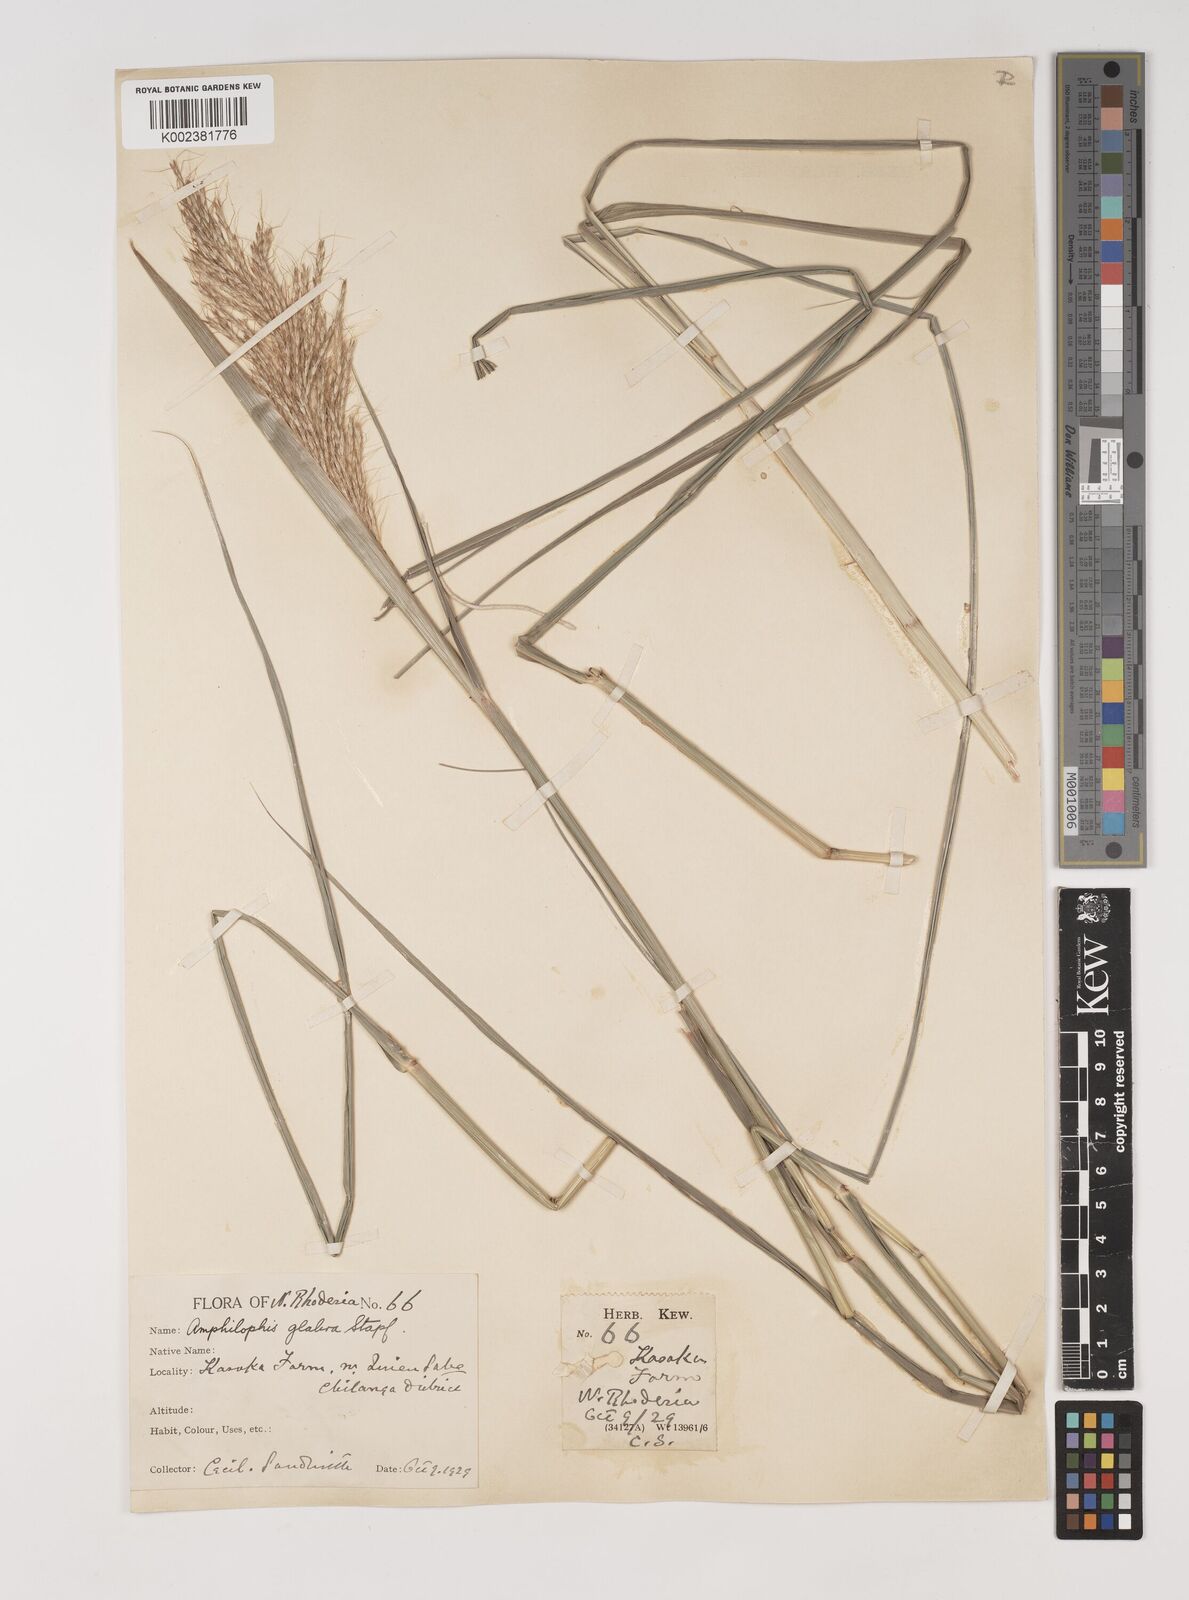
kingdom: Plantae
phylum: Tracheophyta
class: Liliopsida
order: Poales
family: Poaceae
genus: Bothriochloa
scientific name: Bothriochloa bladhii
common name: Caucasian bluestem
